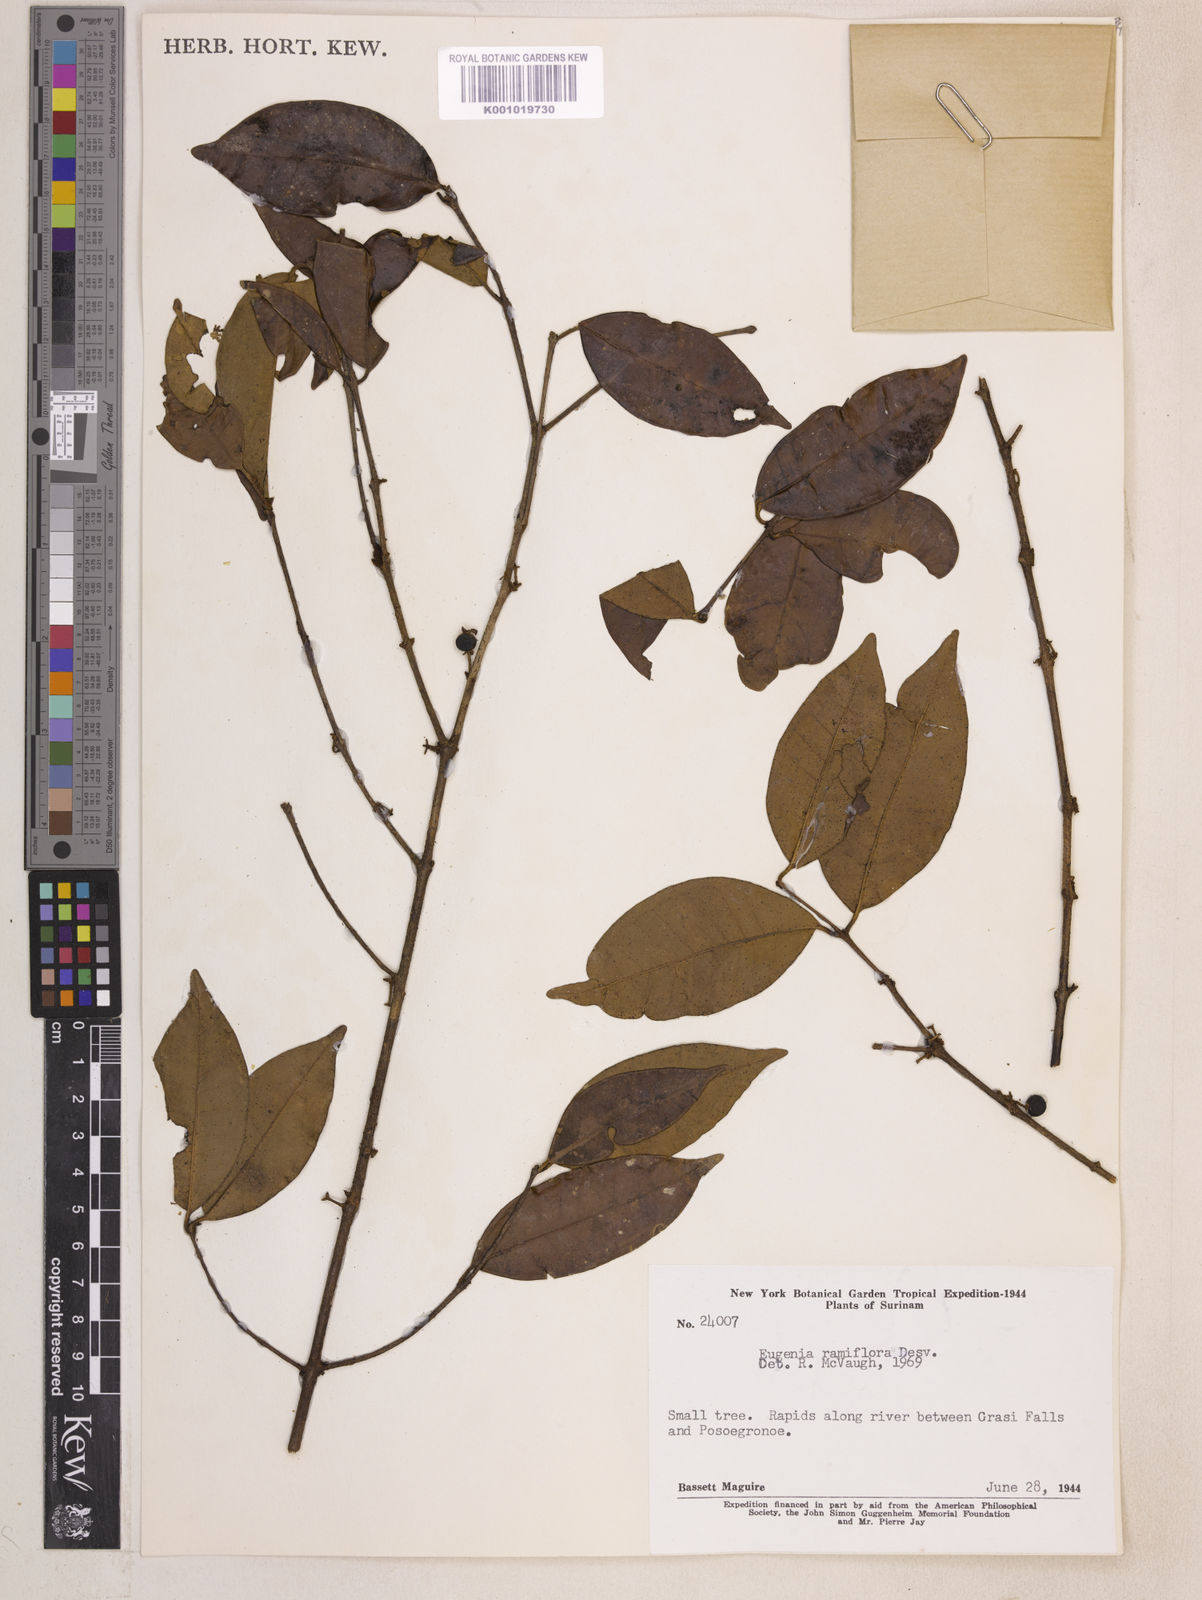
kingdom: Plantae
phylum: Tracheophyta
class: Magnoliopsida
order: Myrtales
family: Myrtaceae
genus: Eugenia
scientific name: Eugenia ramiflora
